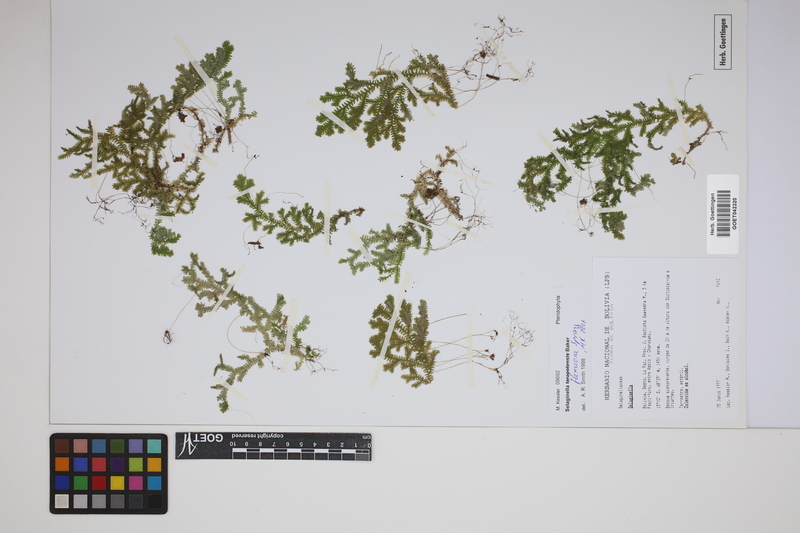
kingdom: Plantae
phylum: Tracheophyta
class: Lycopodiopsida
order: Selaginellales
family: Selaginellaceae
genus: Selaginella
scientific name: Selaginella flexuosa
